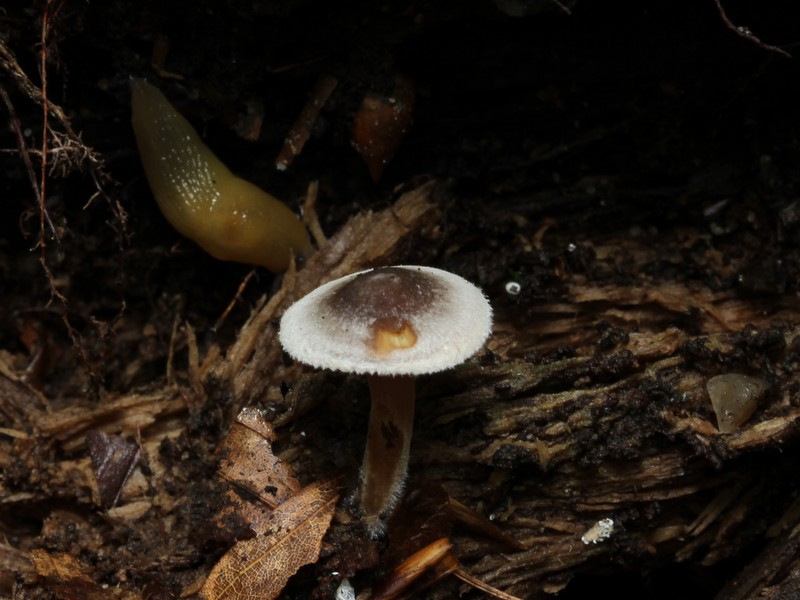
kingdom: Fungi
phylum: Basidiomycota
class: Agaricomycetes
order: Agaricales
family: Inocybaceae
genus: Inocybe
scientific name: Inocybe petiginosa
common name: liden trævlhat
